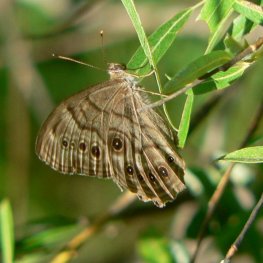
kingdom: Animalia
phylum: Arthropoda
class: Insecta
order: Lepidoptera
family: Nymphalidae
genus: Lethe
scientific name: Lethe anthedon
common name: Northern Pearly-Eye
